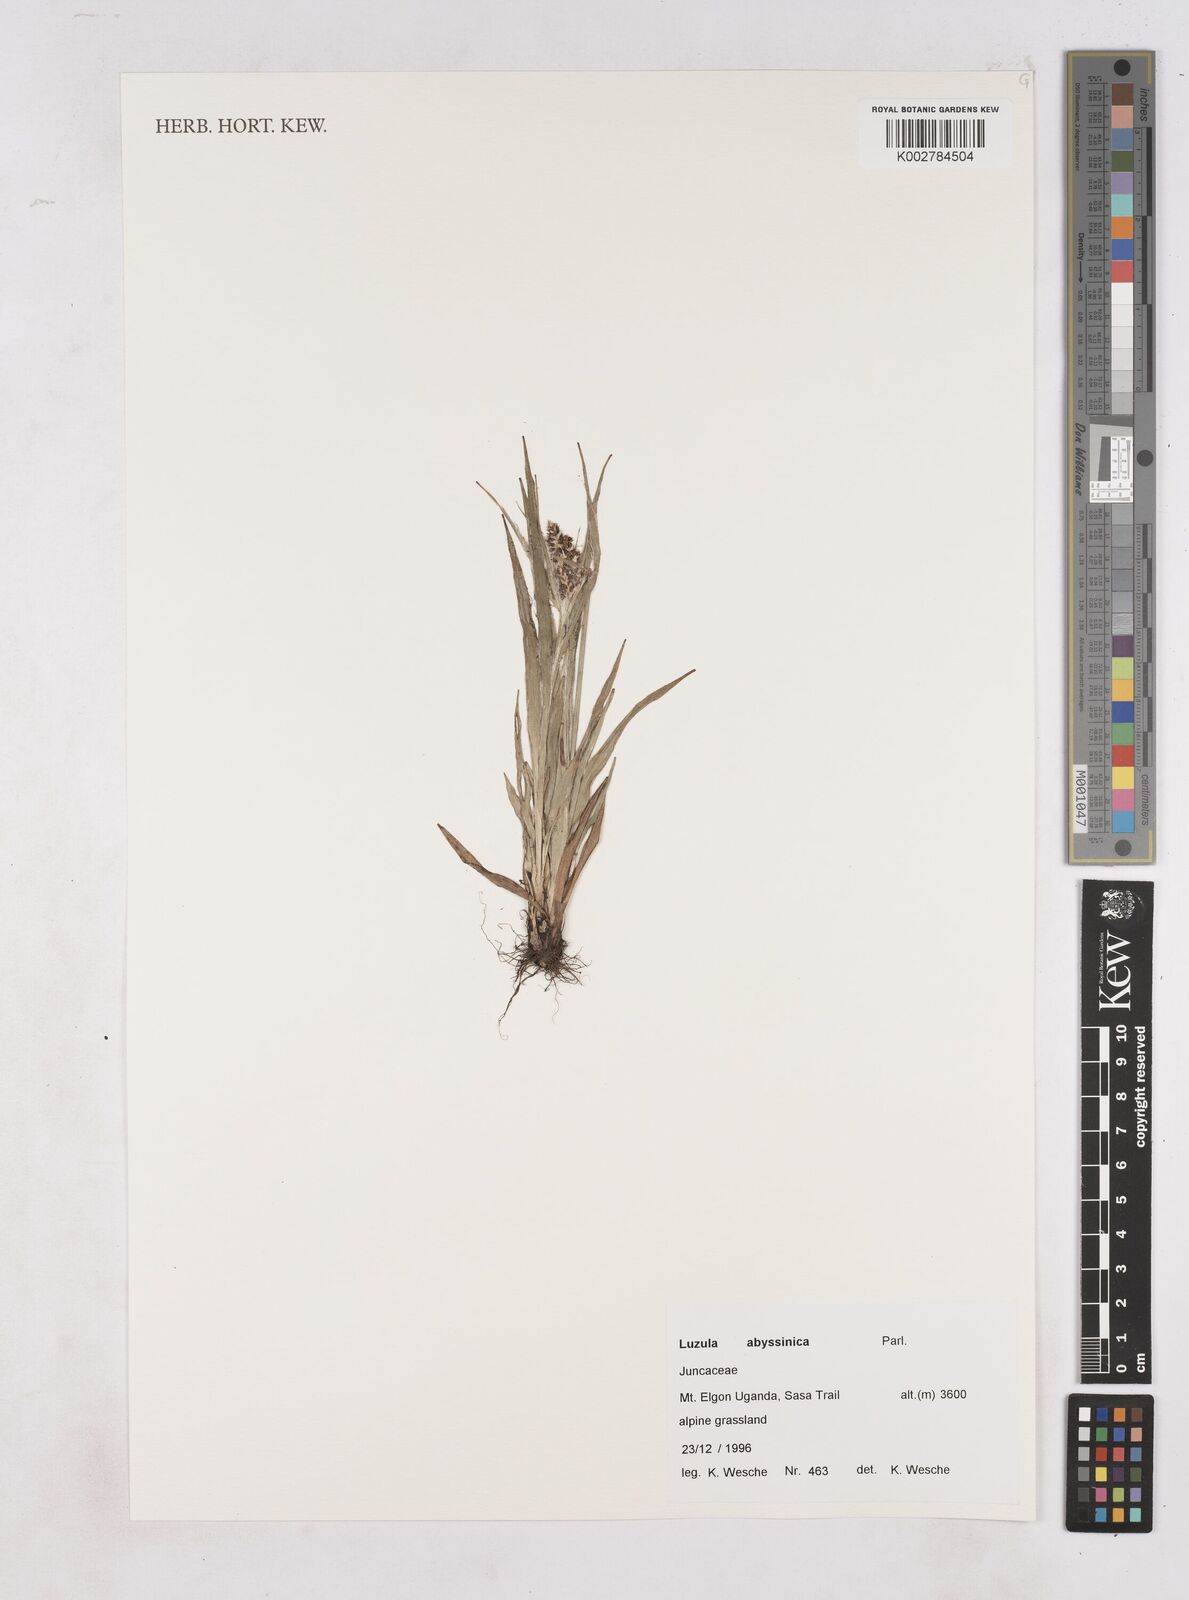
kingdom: Plantae
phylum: Tracheophyta
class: Liliopsida
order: Poales
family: Juncaceae
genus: Luzula
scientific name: Luzula abyssinica
